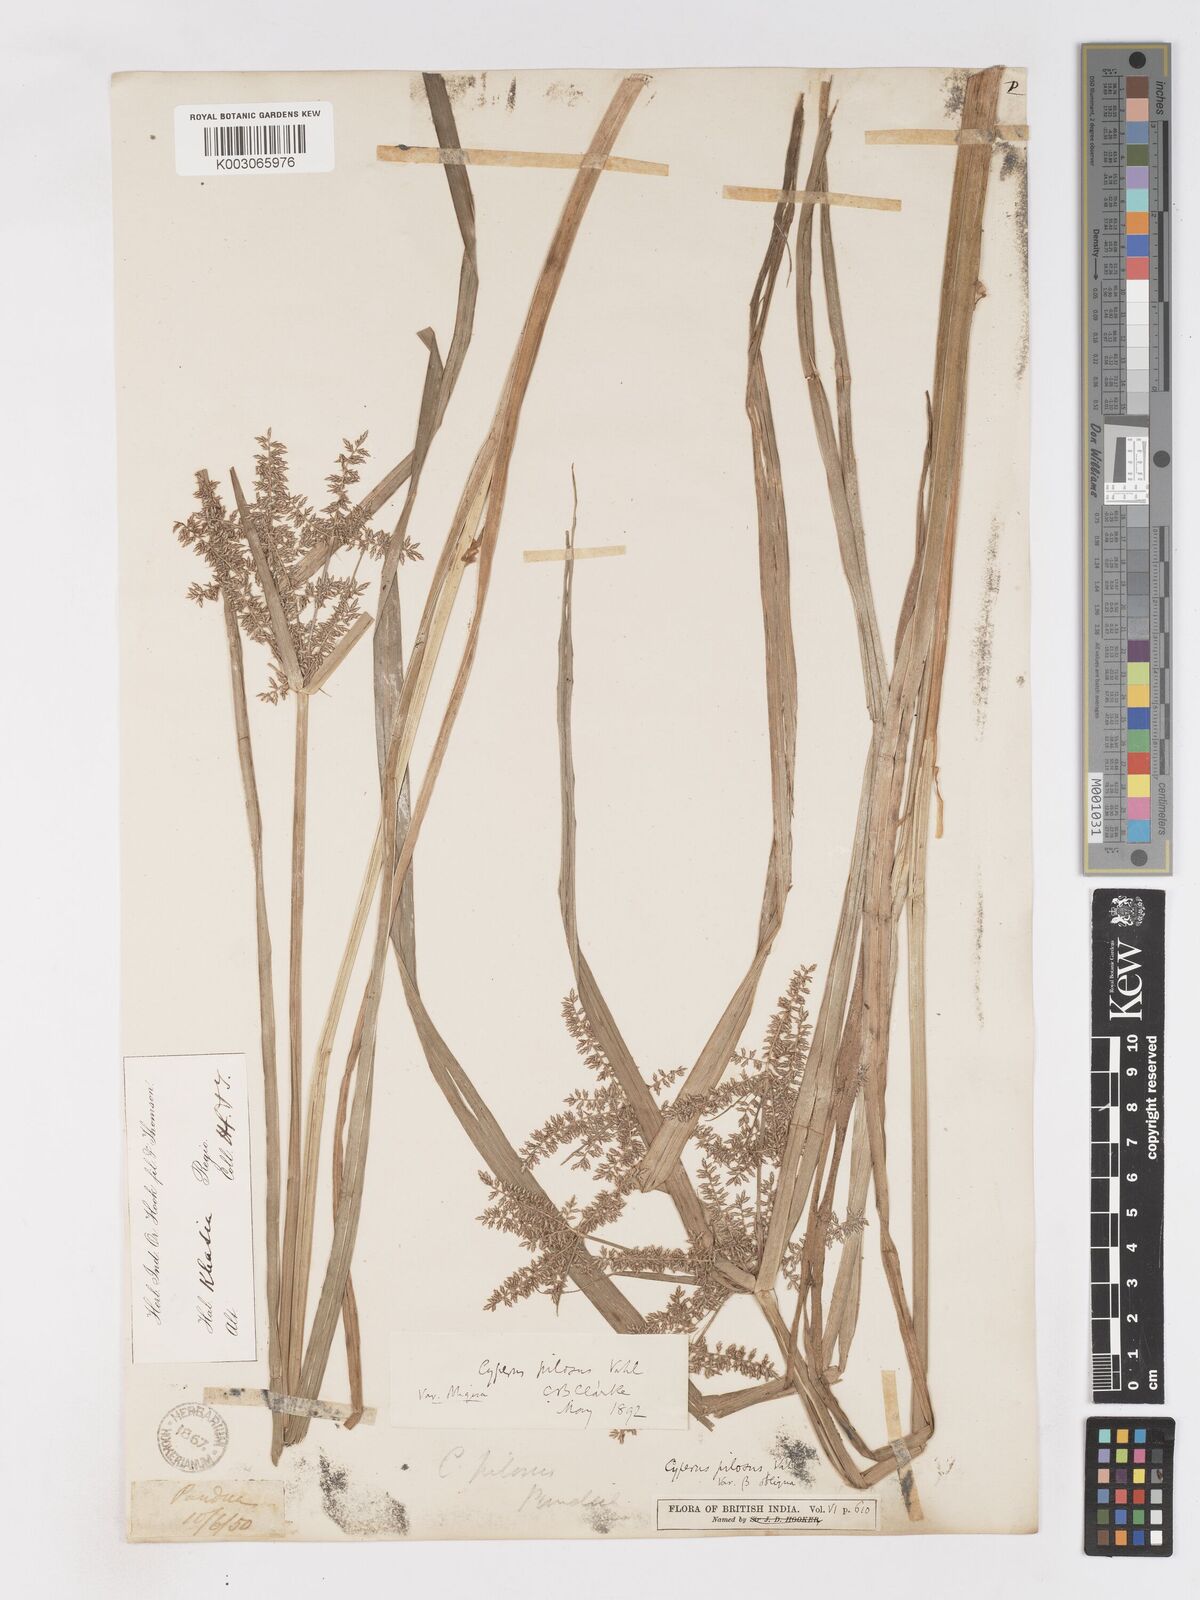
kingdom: Plantae
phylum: Tracheophyta
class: Liliopsida
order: Poales
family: Cyperaceae
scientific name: Cyperaceae
